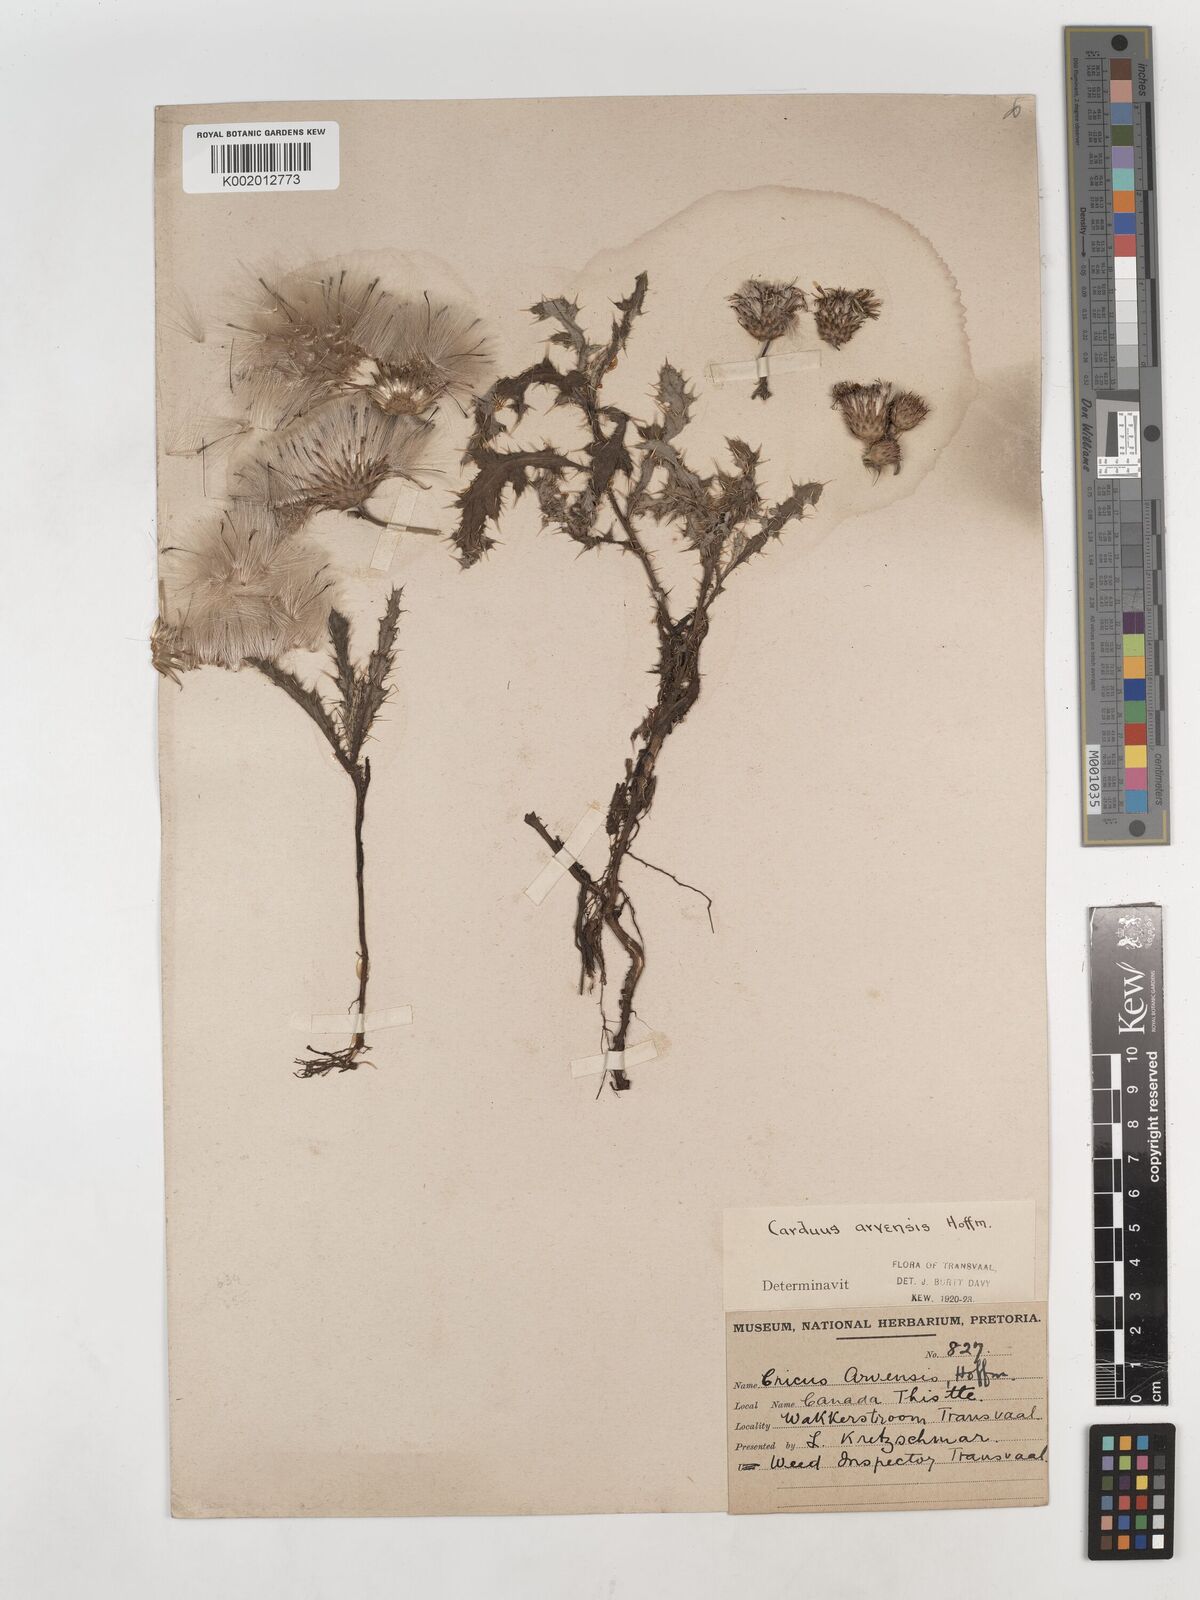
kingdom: Plantae
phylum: Tracheophyta
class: Magnoliopsida
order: Asterales
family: Asteraceae
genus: Cirsium
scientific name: Cirsium arvense
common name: Creeping thistle
